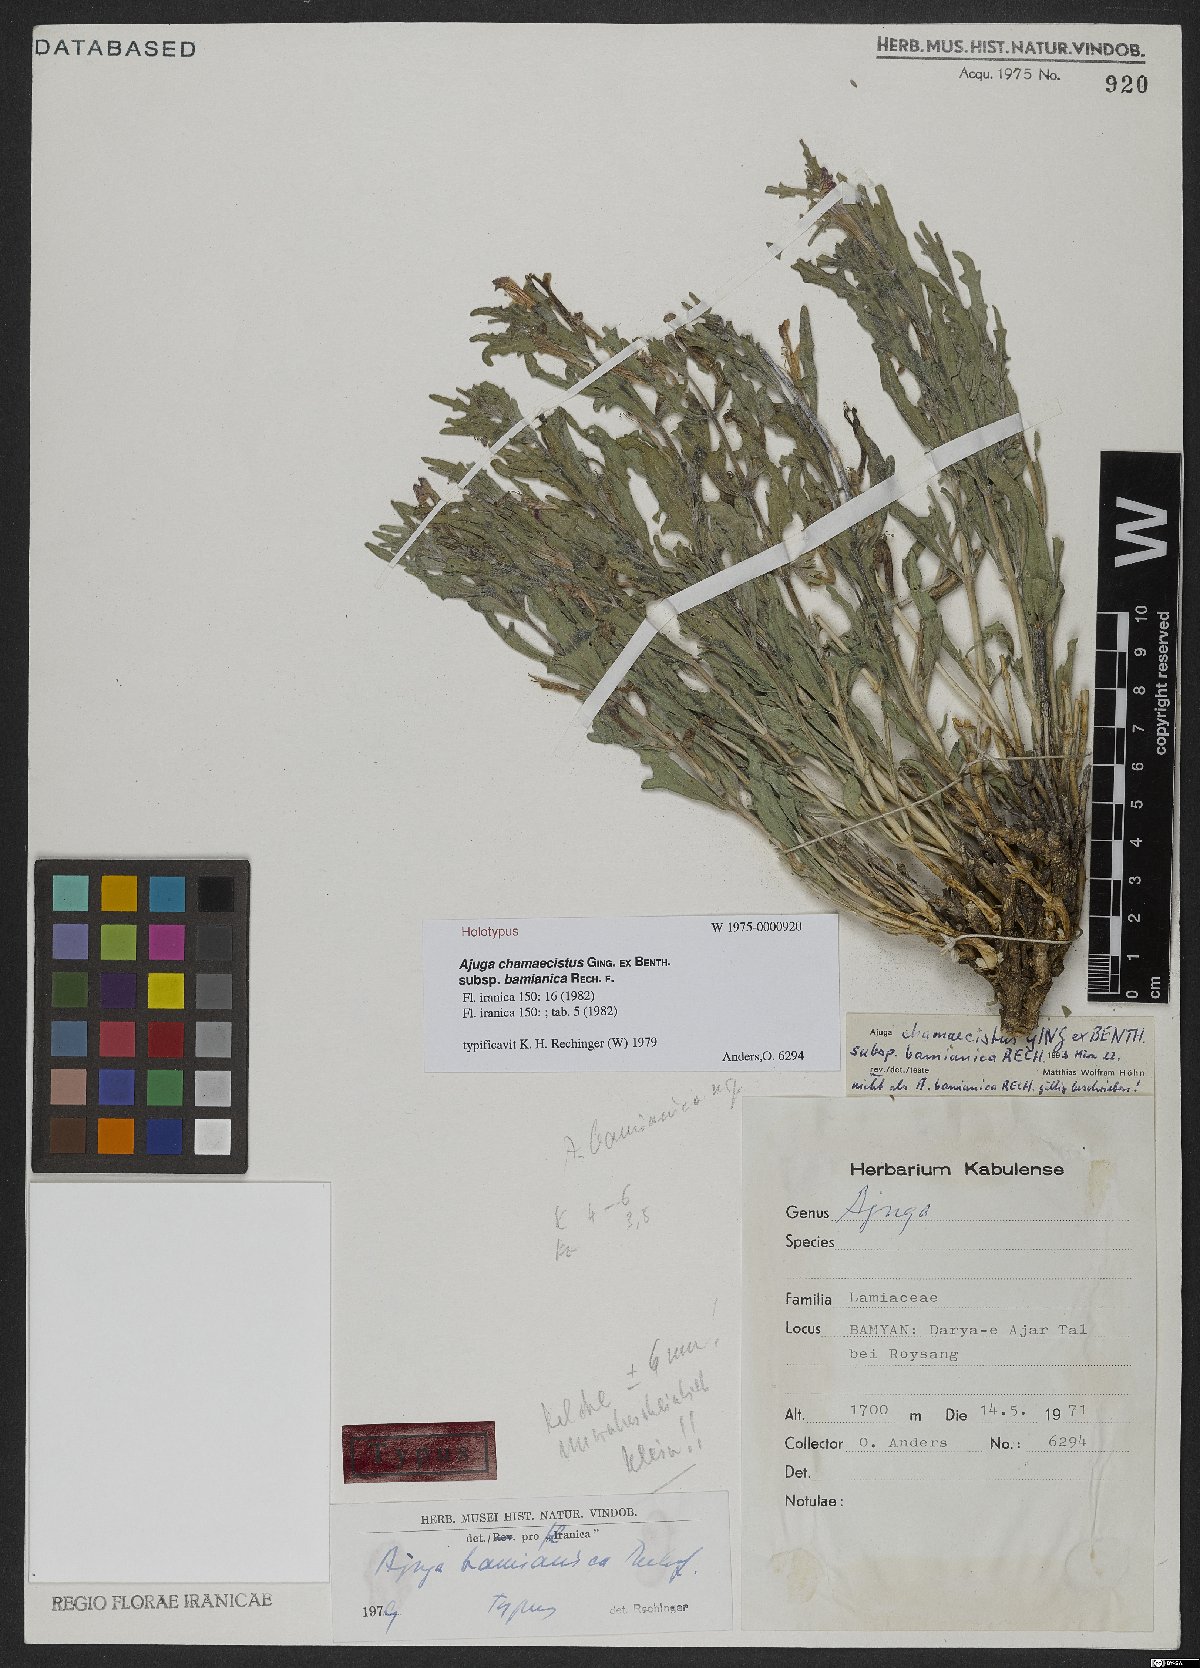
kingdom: Plantae
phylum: Tracheophyta
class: Magnoliopsida
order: Lamiales
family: Lamiaceae
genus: Ajuga
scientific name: Ajuga chamaecistus
